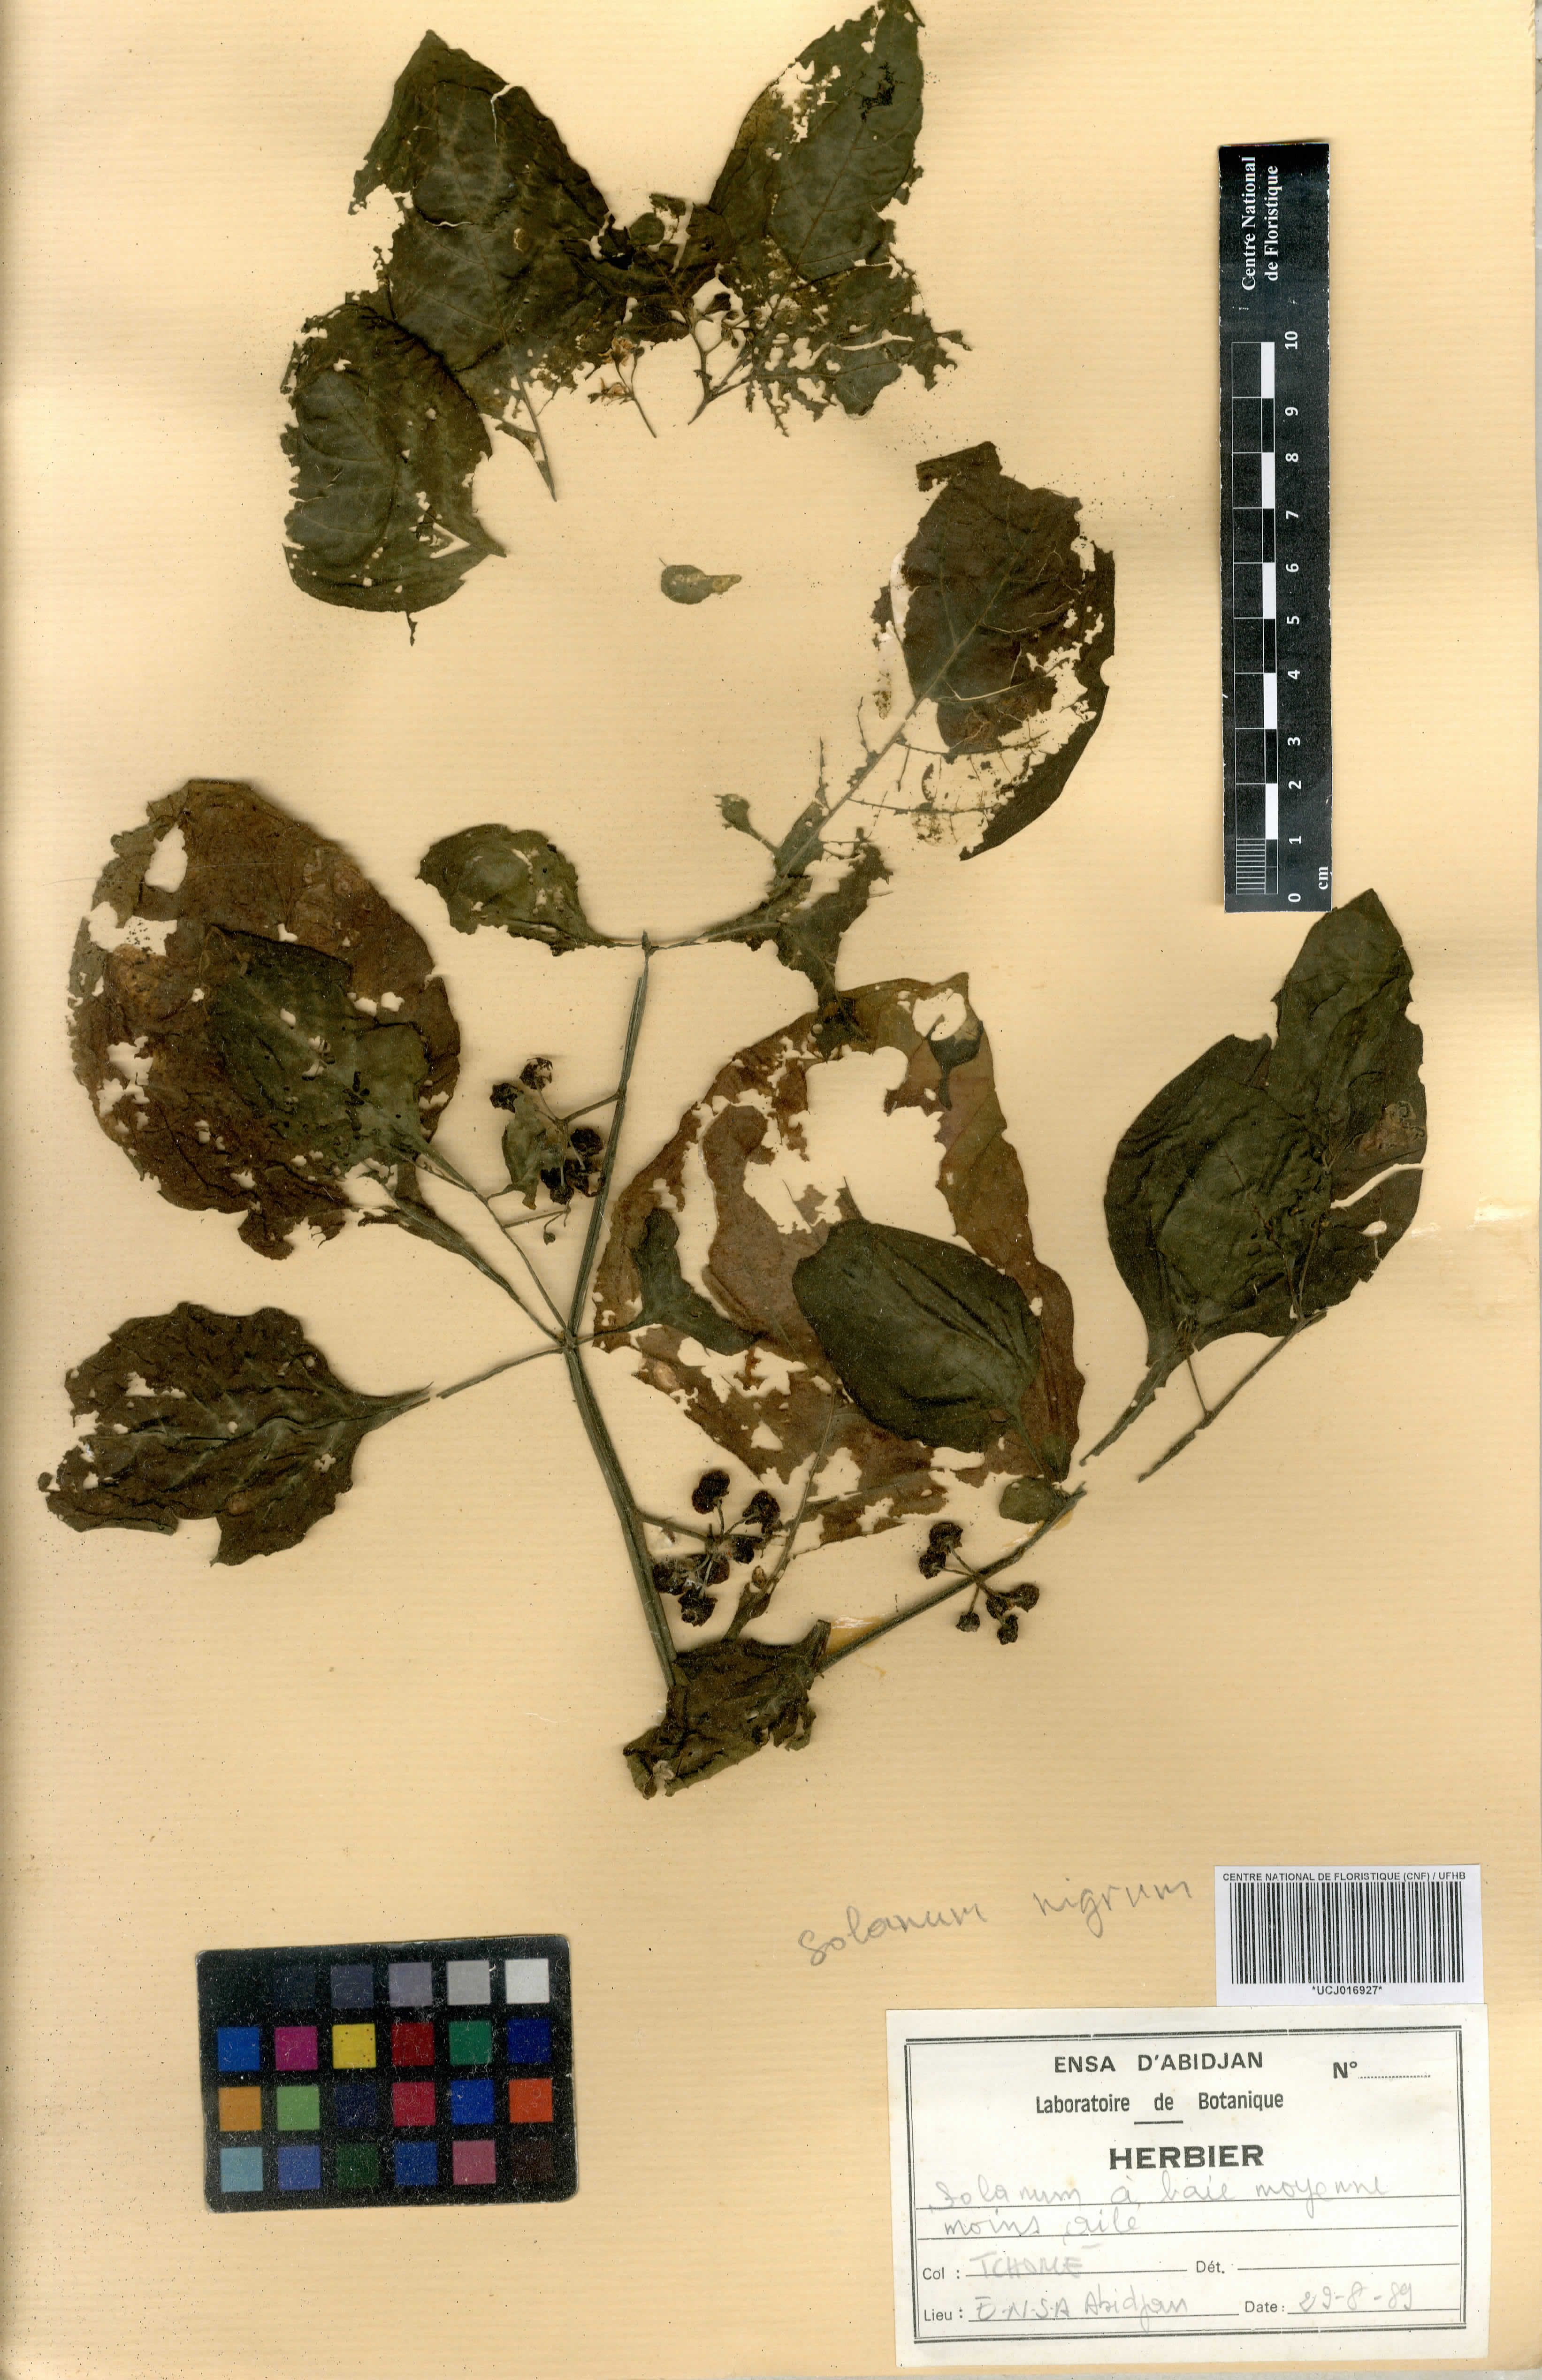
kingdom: Plantae
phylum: Tracheophyta
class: Magnoliopsida
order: Solanales
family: Solanaceae
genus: Solanum
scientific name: Solanum nigrum
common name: Black nightshade
